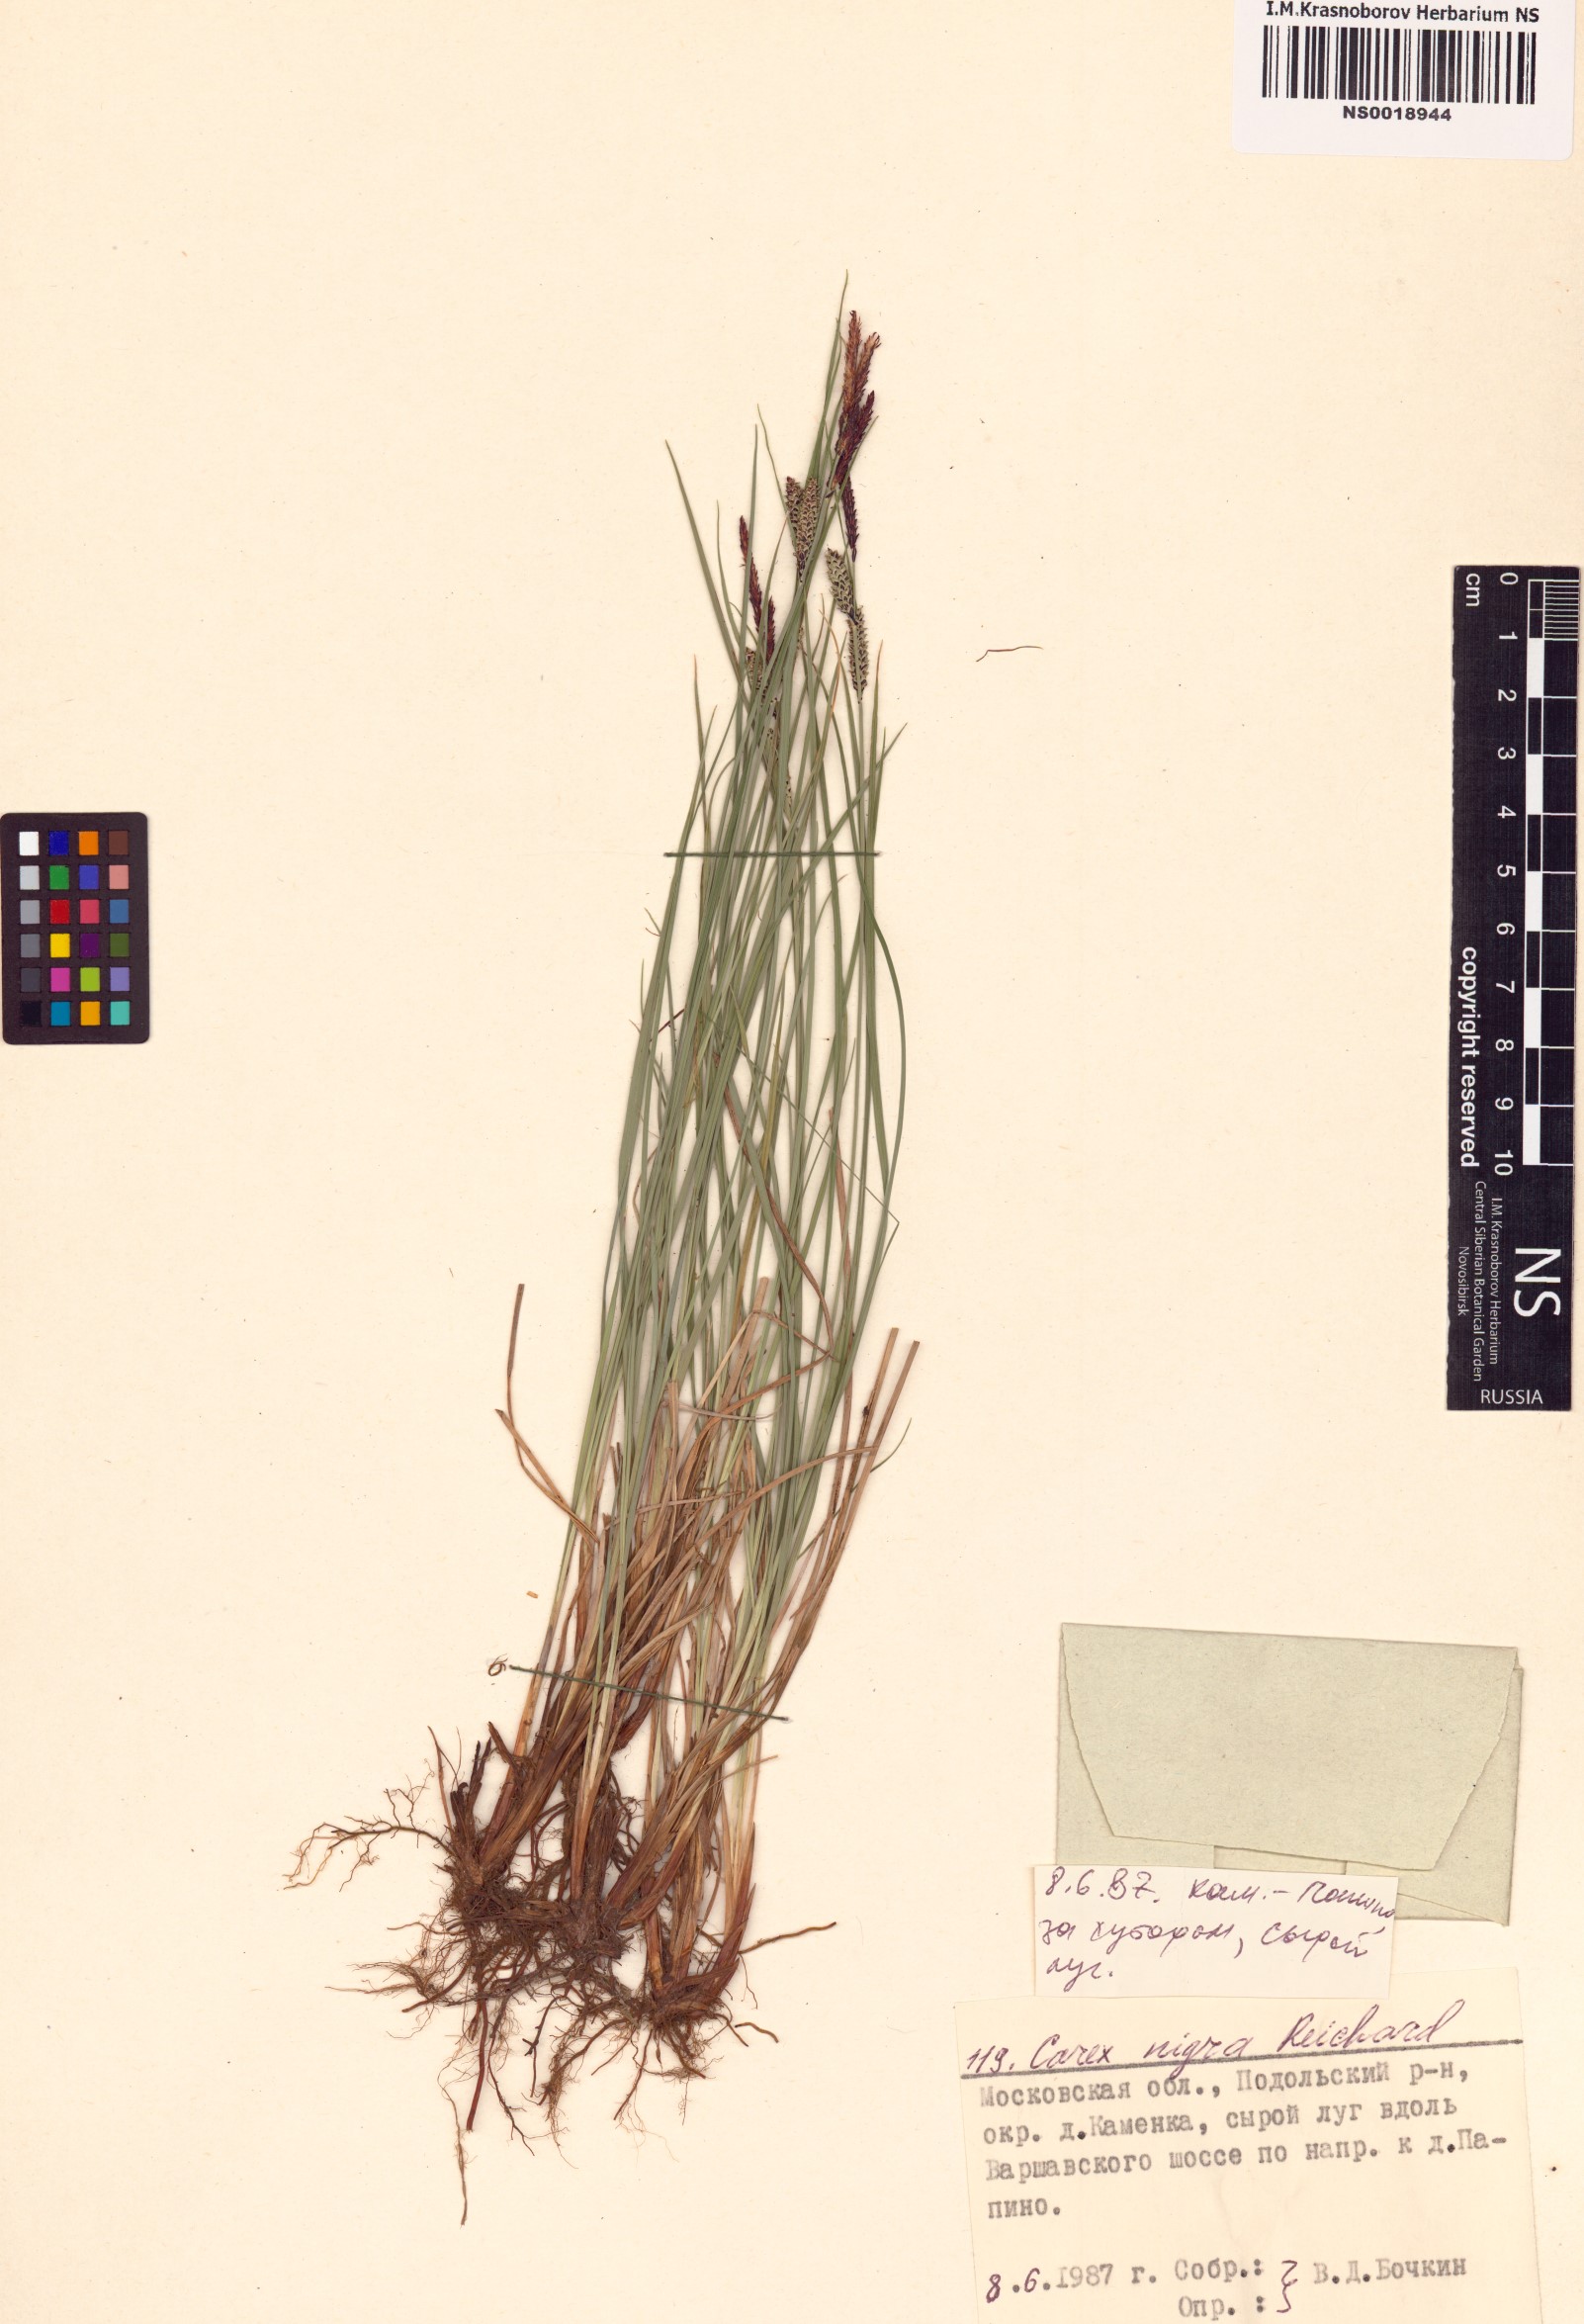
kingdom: Plantae
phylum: Tracheophyta
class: Liliopsida
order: Poales
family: Cyperaceae
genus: Carex
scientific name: Carex nigra
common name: Common sedge
